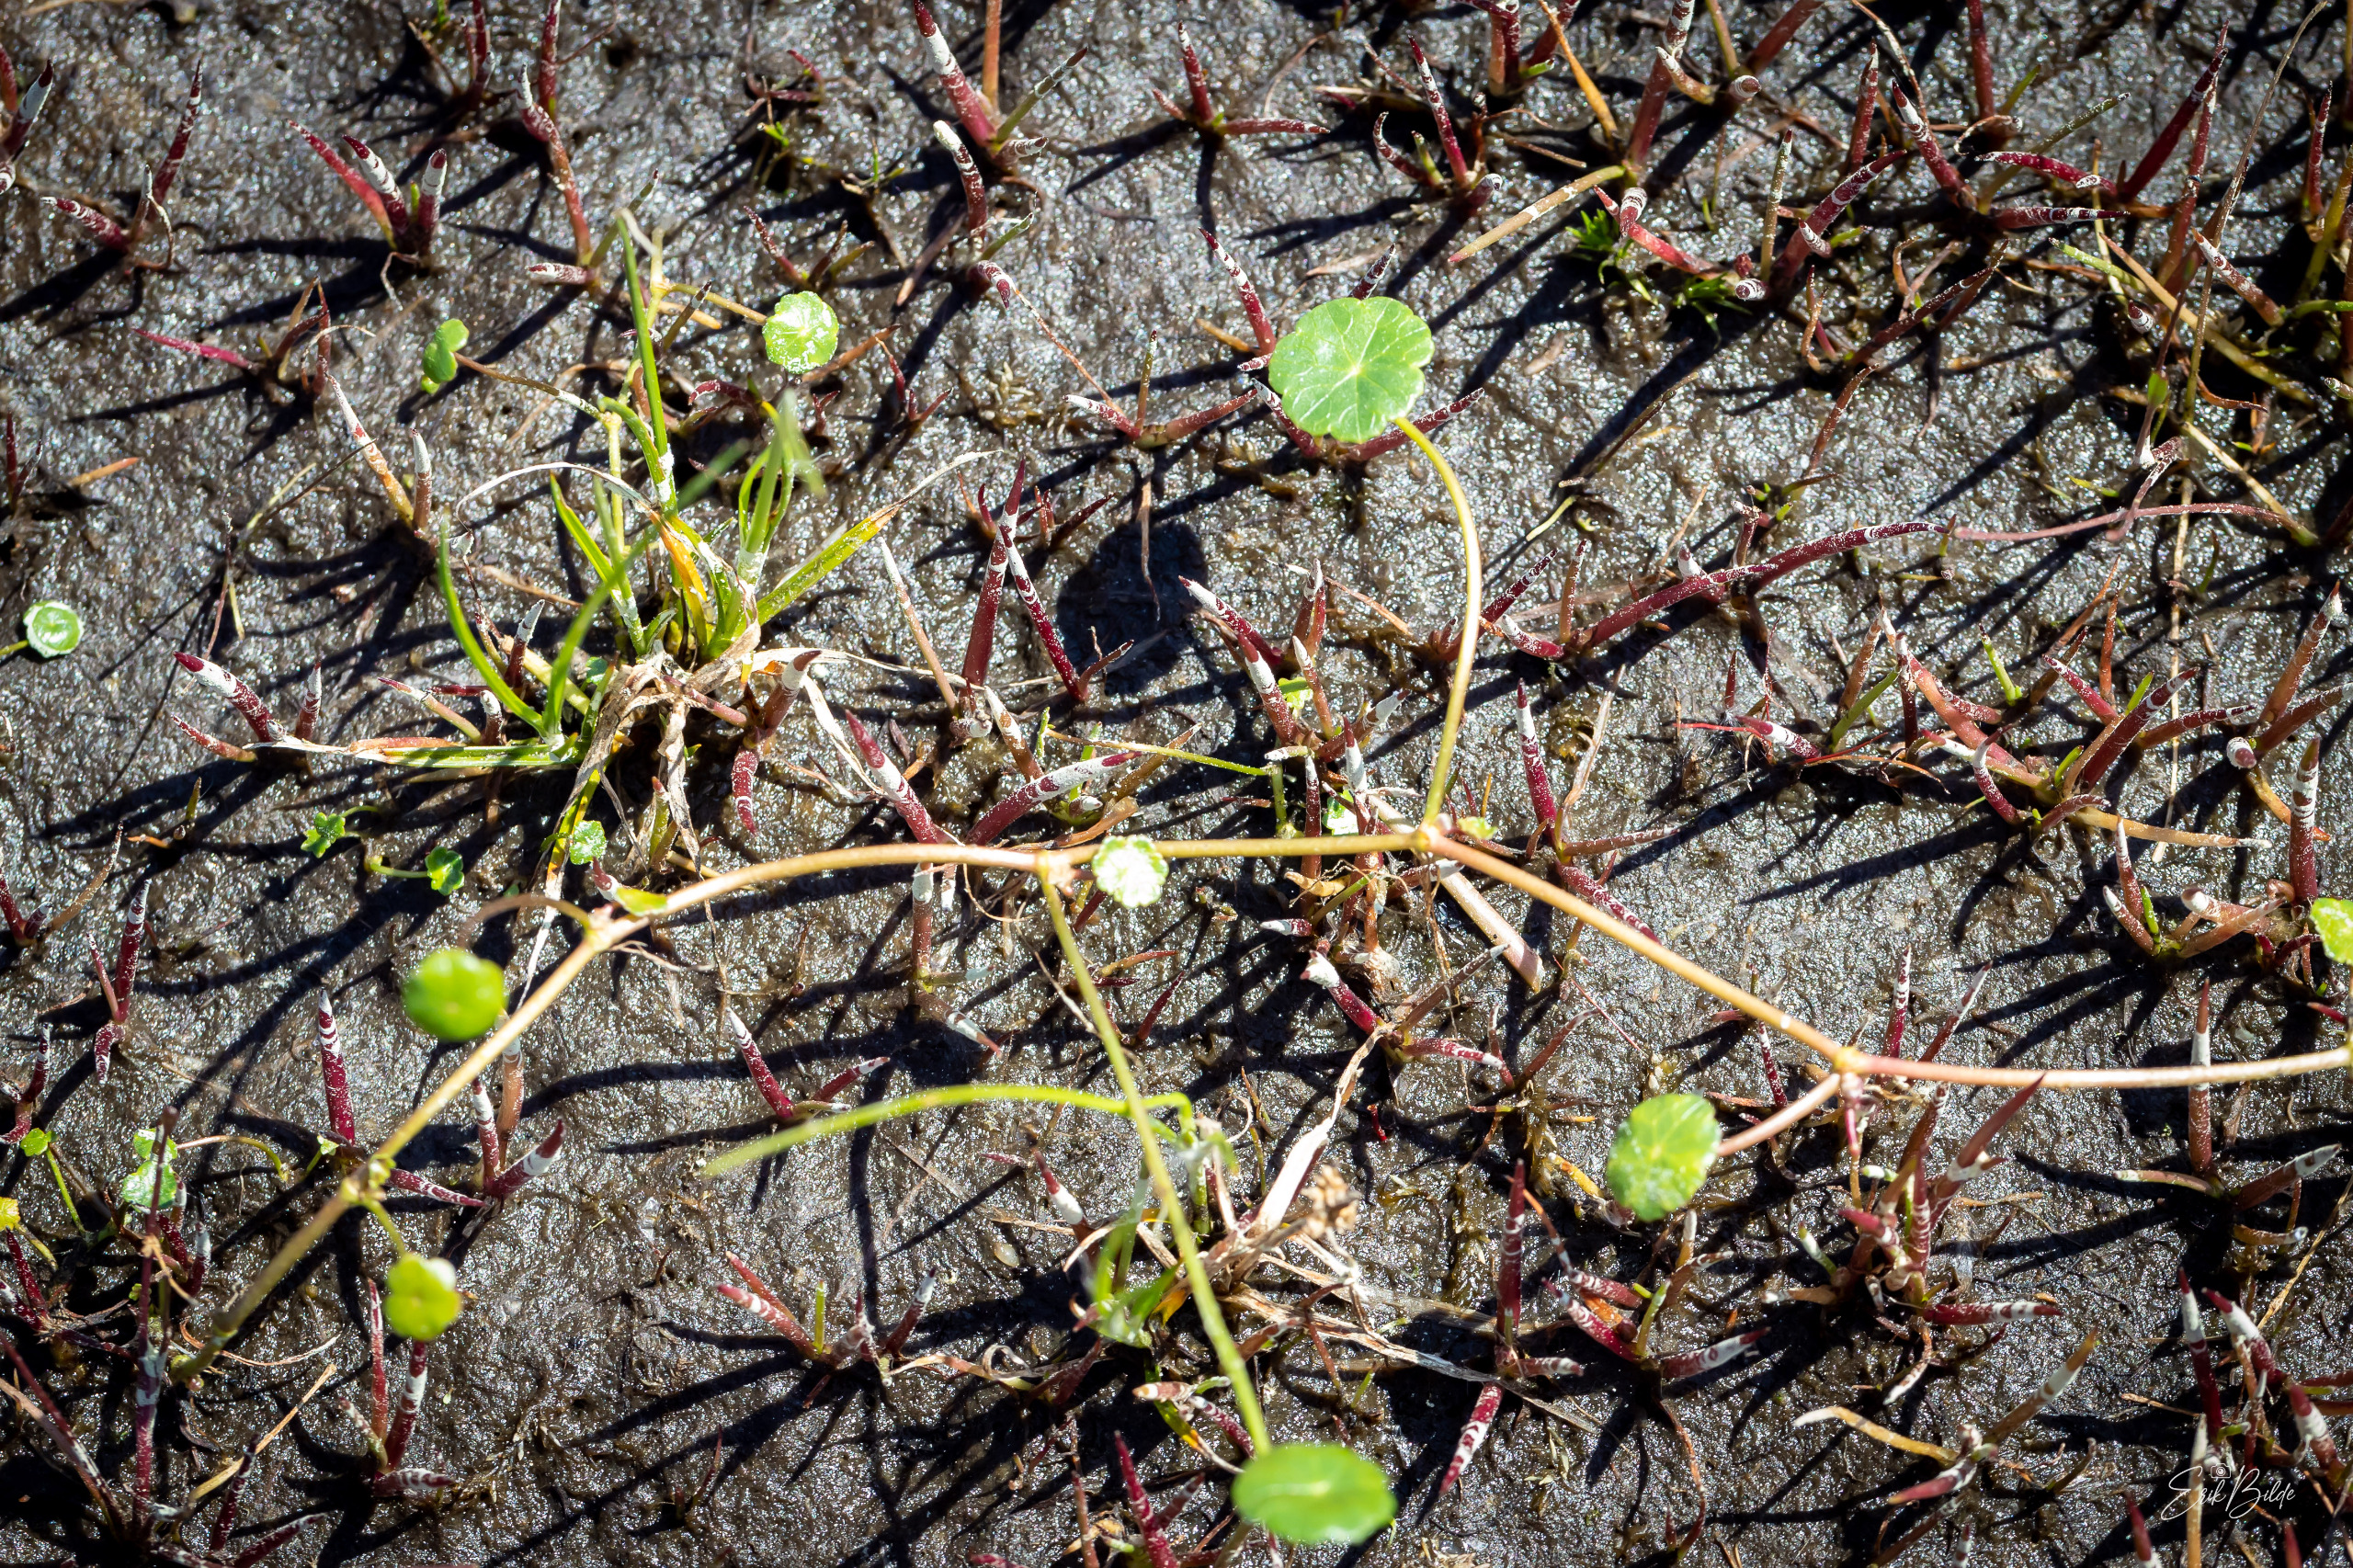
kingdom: Plantae
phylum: Tracheophyta
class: Magnoliopsida
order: Apiales
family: Araliaceae
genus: Hydrocotyle
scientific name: Hydrocotyle vulgaris
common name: Vandnavle
